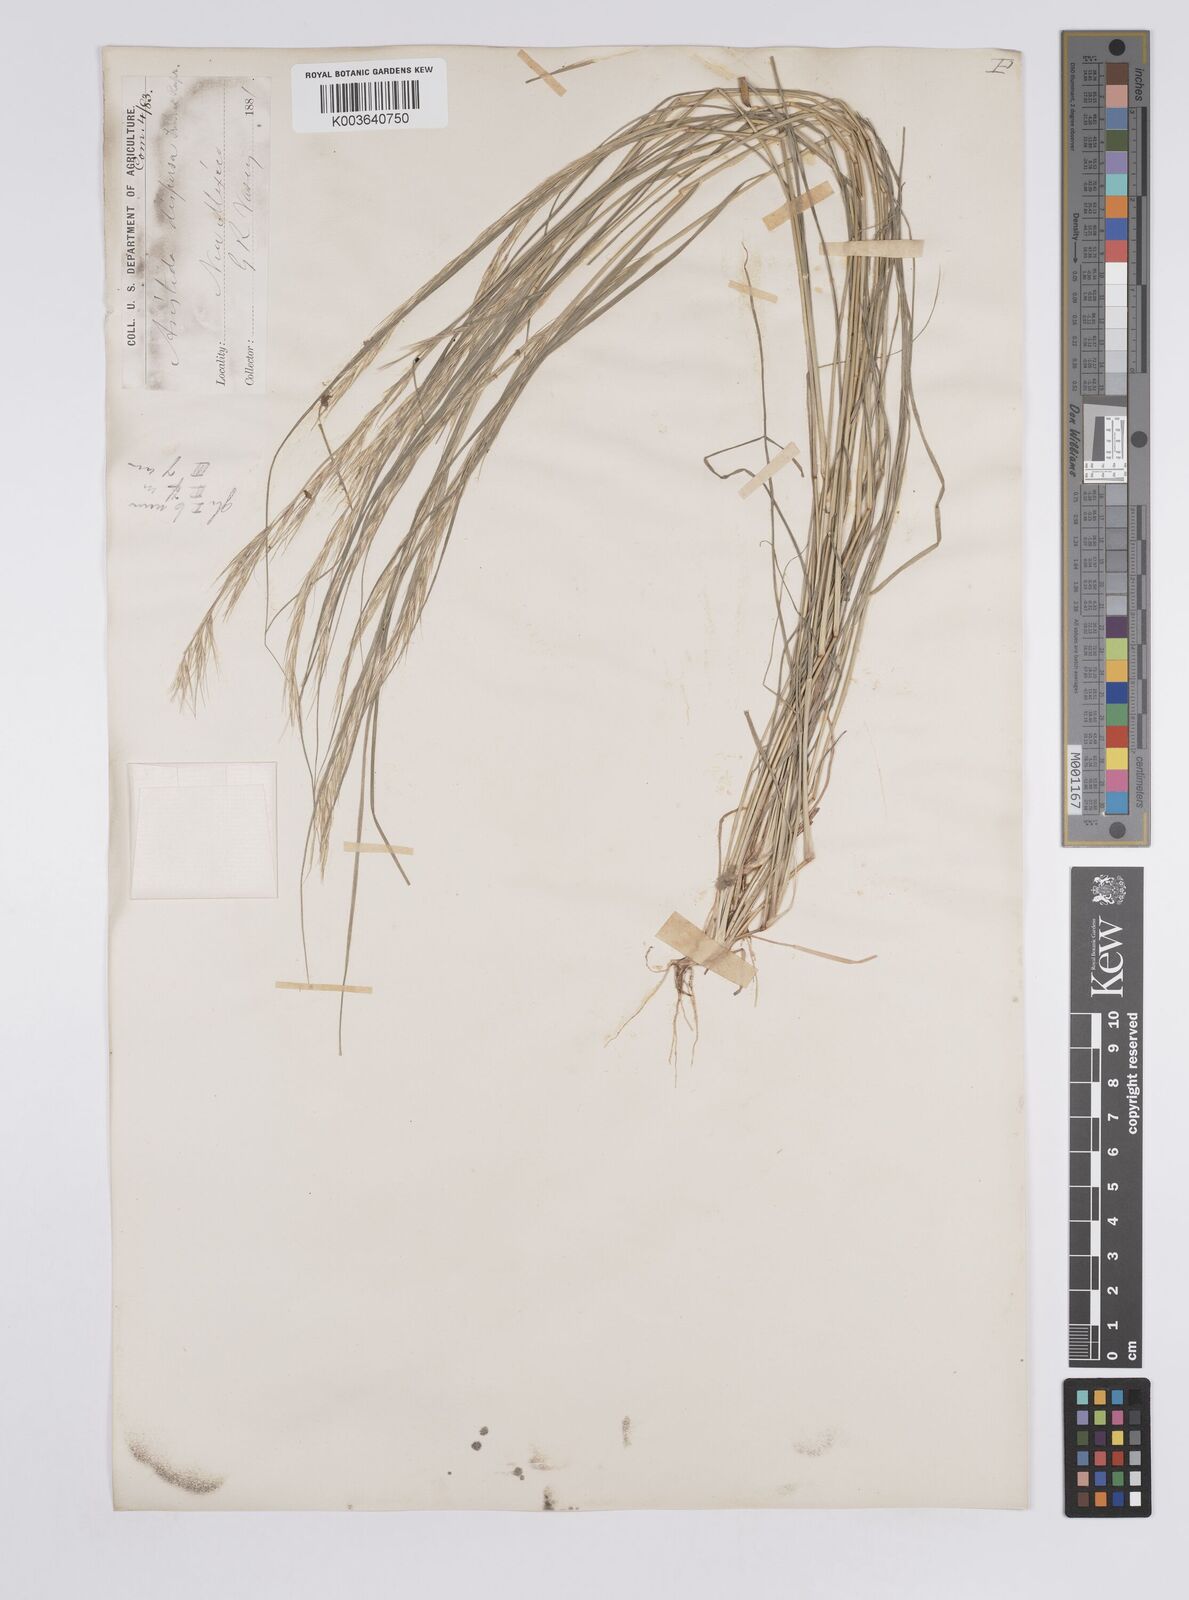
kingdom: Plantae
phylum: Tracheophyta
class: Liliopsida
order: Poales
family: Poaceae
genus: Aristida
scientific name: Aristida adscensionis
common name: Sixweeks threeawn
